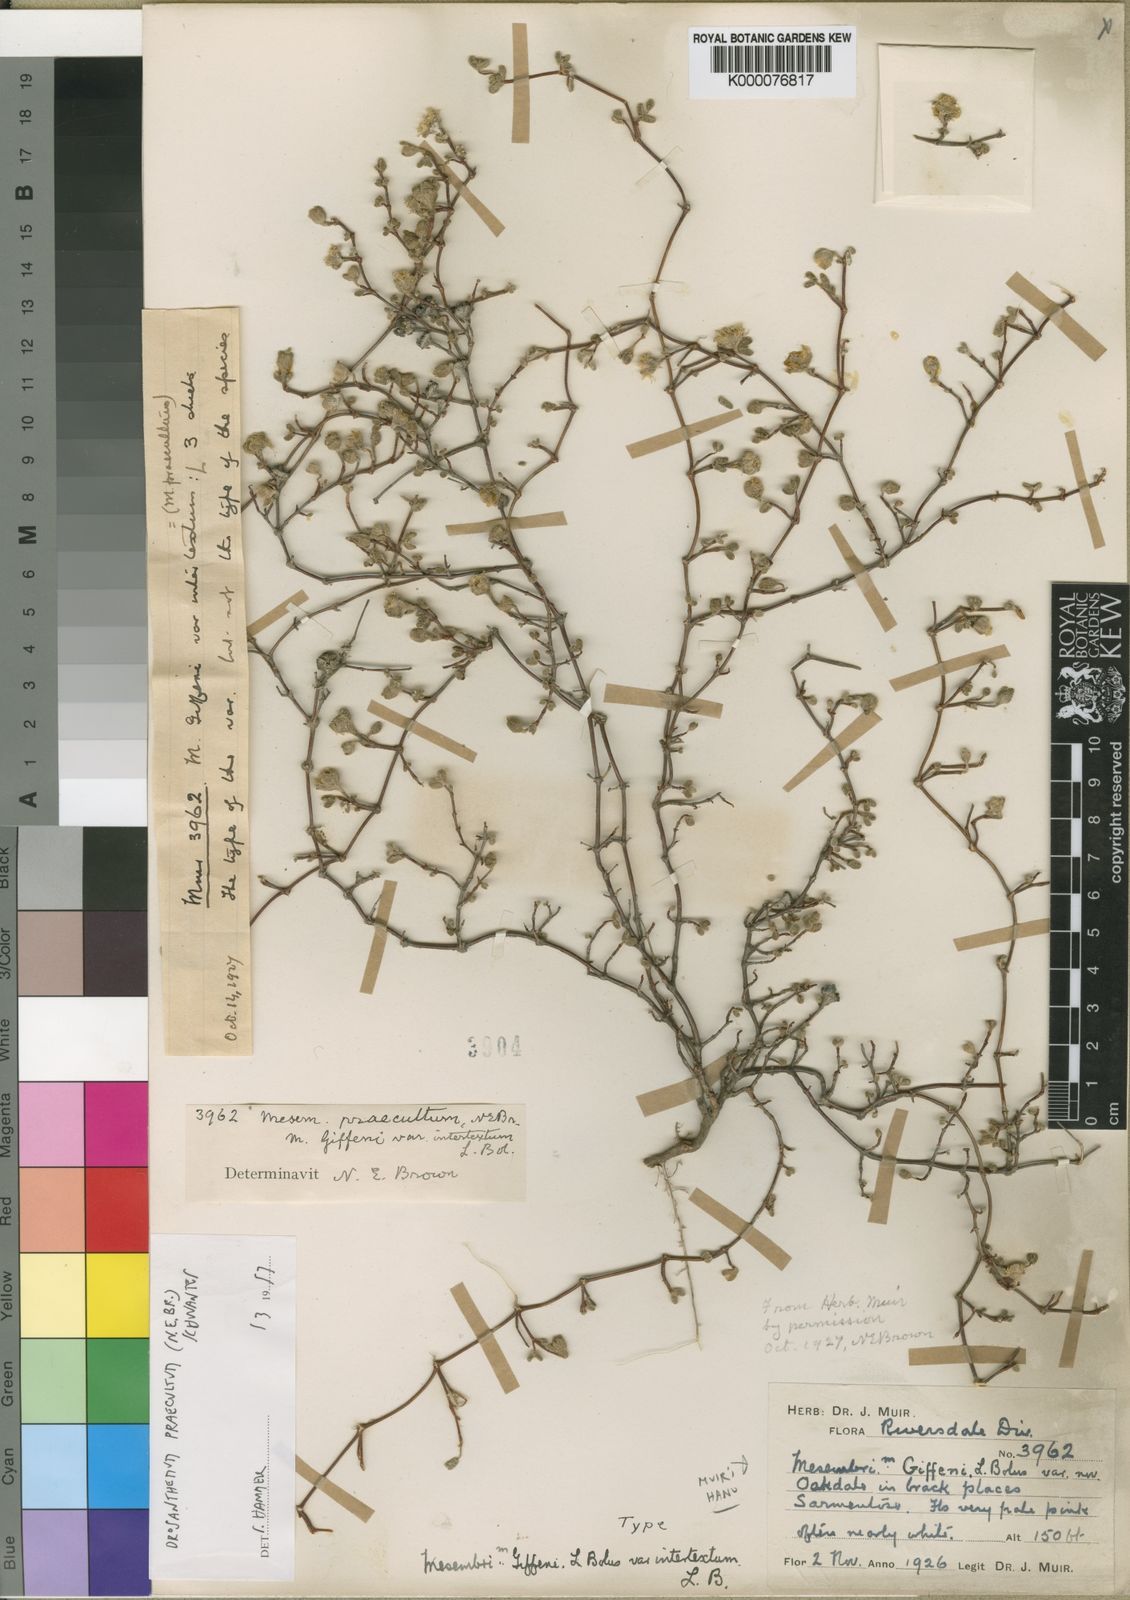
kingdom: Plantae
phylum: Tracheophyta
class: Magnoliopsida
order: Caryophyllales
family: Aizoaceae
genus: Drosanthemum
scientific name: Drosanthemum praecultum
